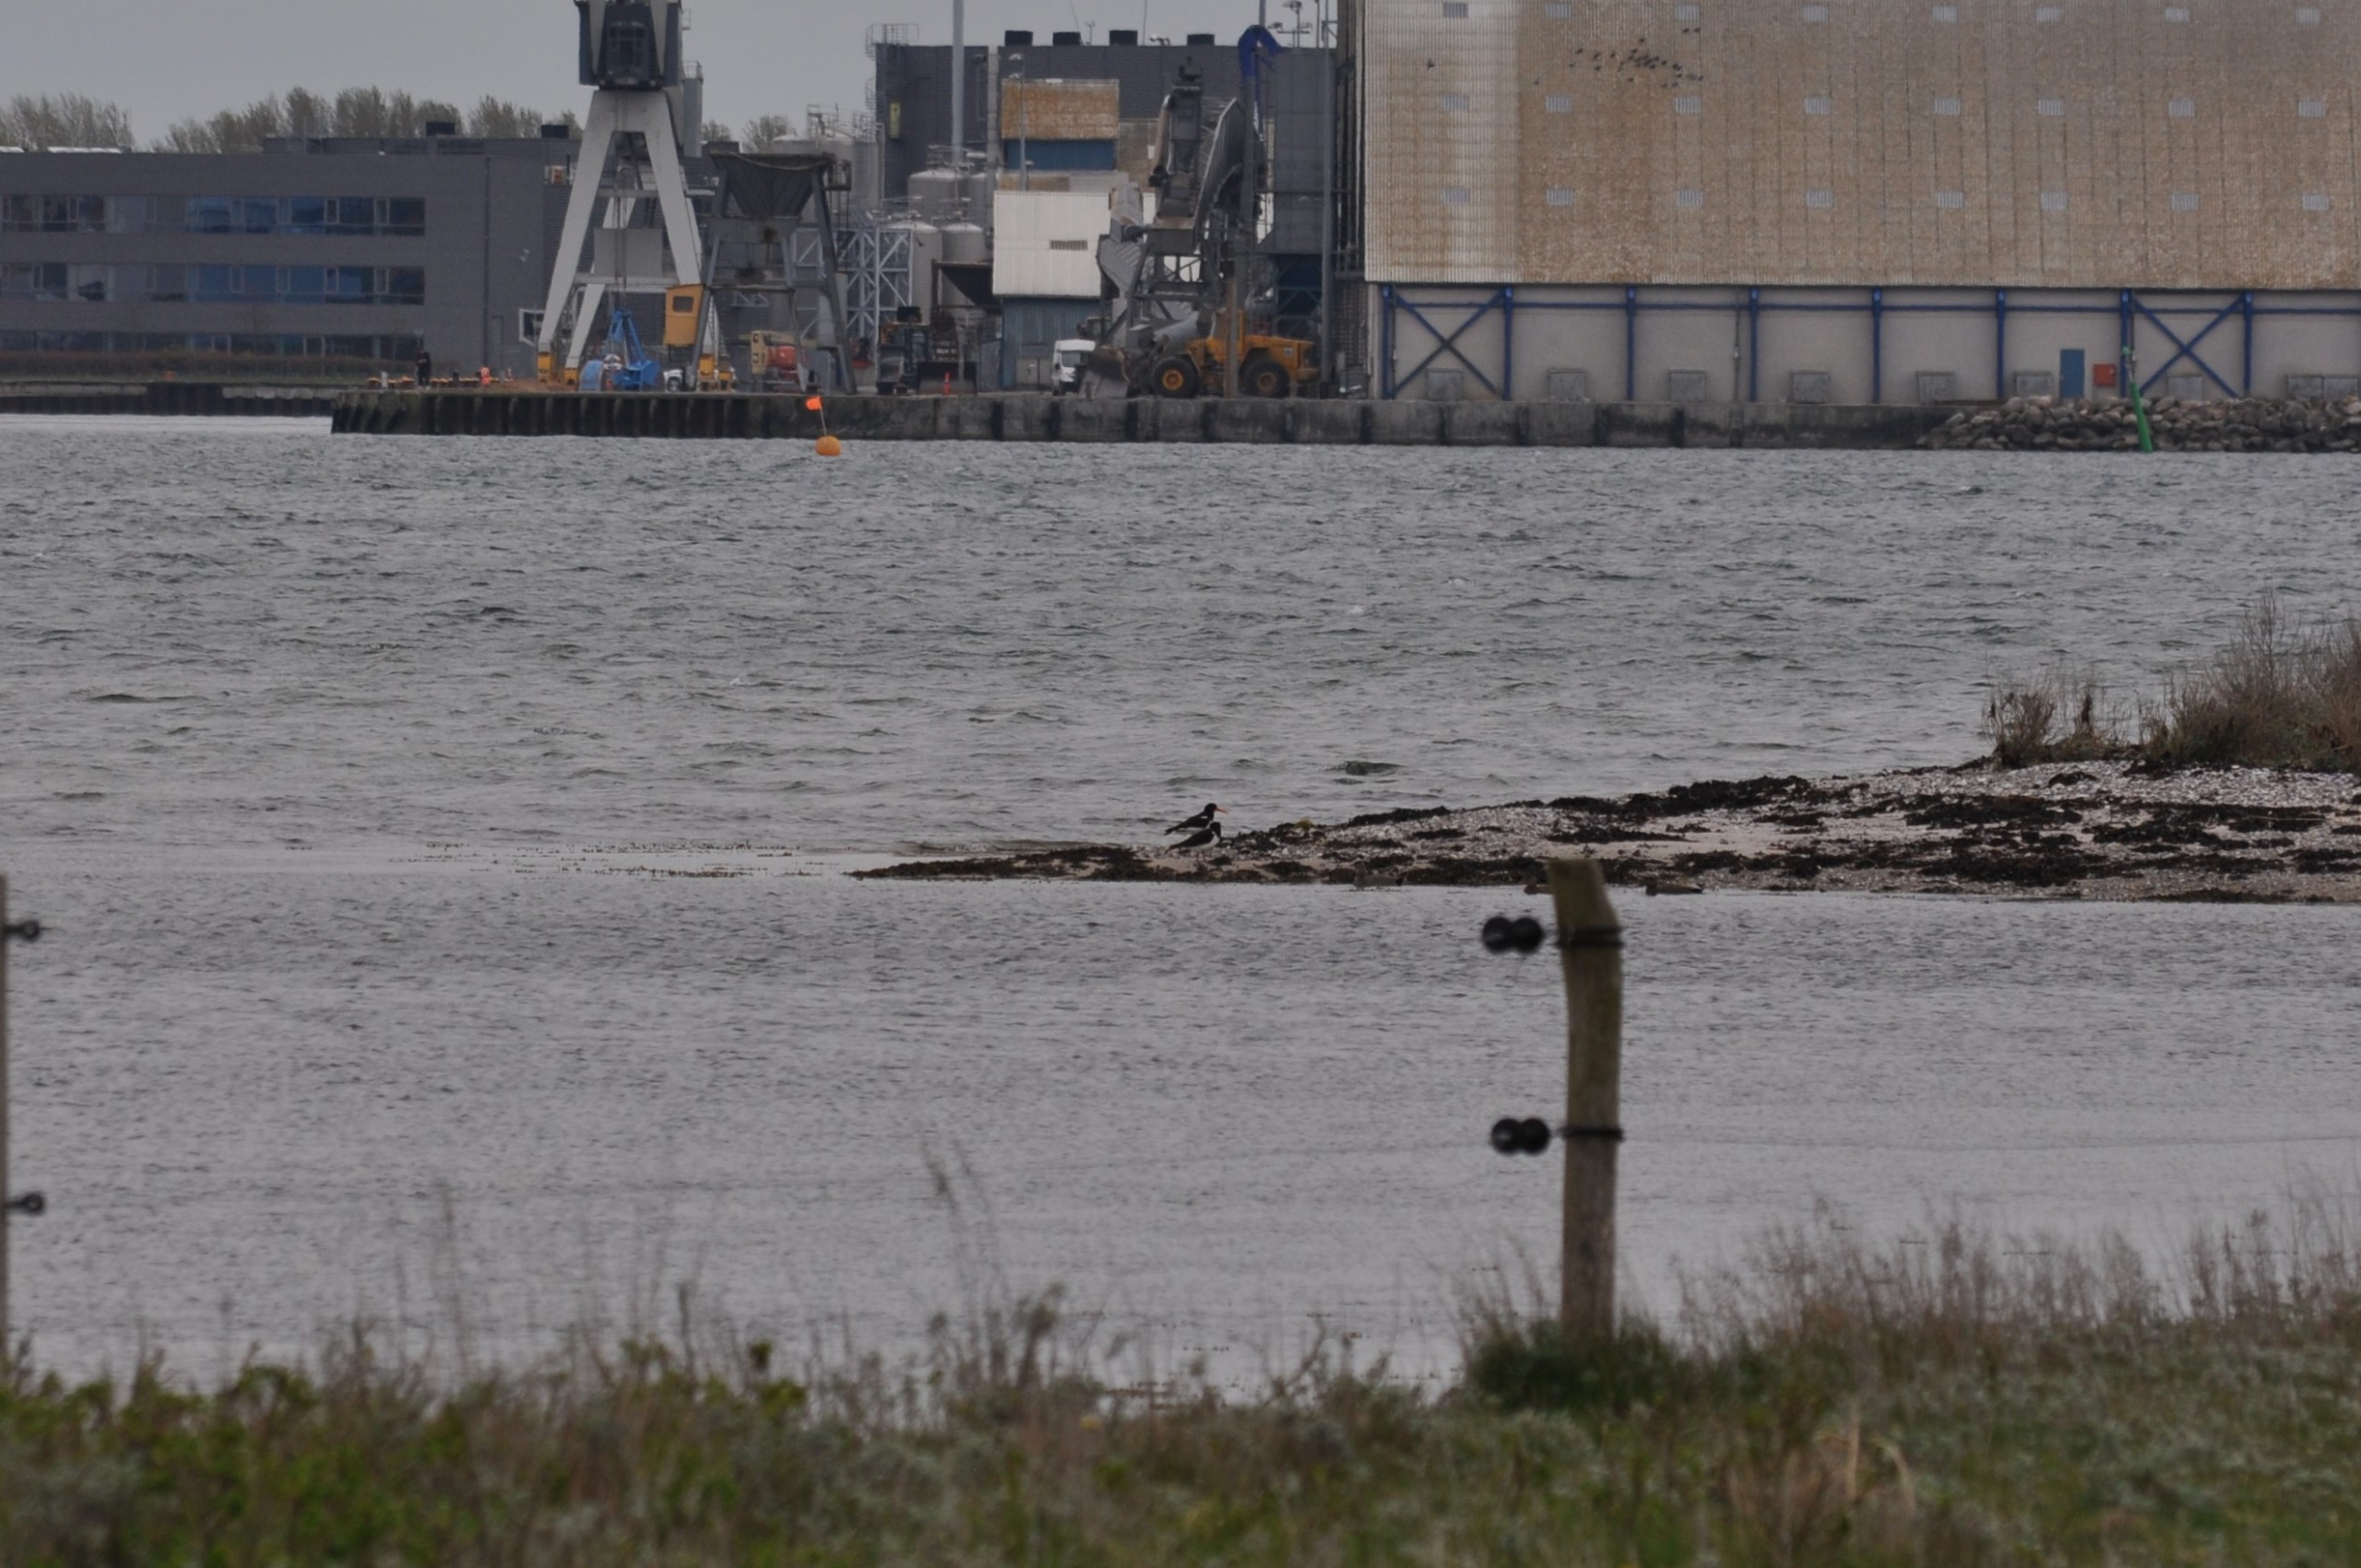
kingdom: Animalia
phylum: Chordata
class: Aves
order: Charadriiformes
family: Haematopodidae
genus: Haematopus
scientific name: Haematopus ostralegus
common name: Strandskade
